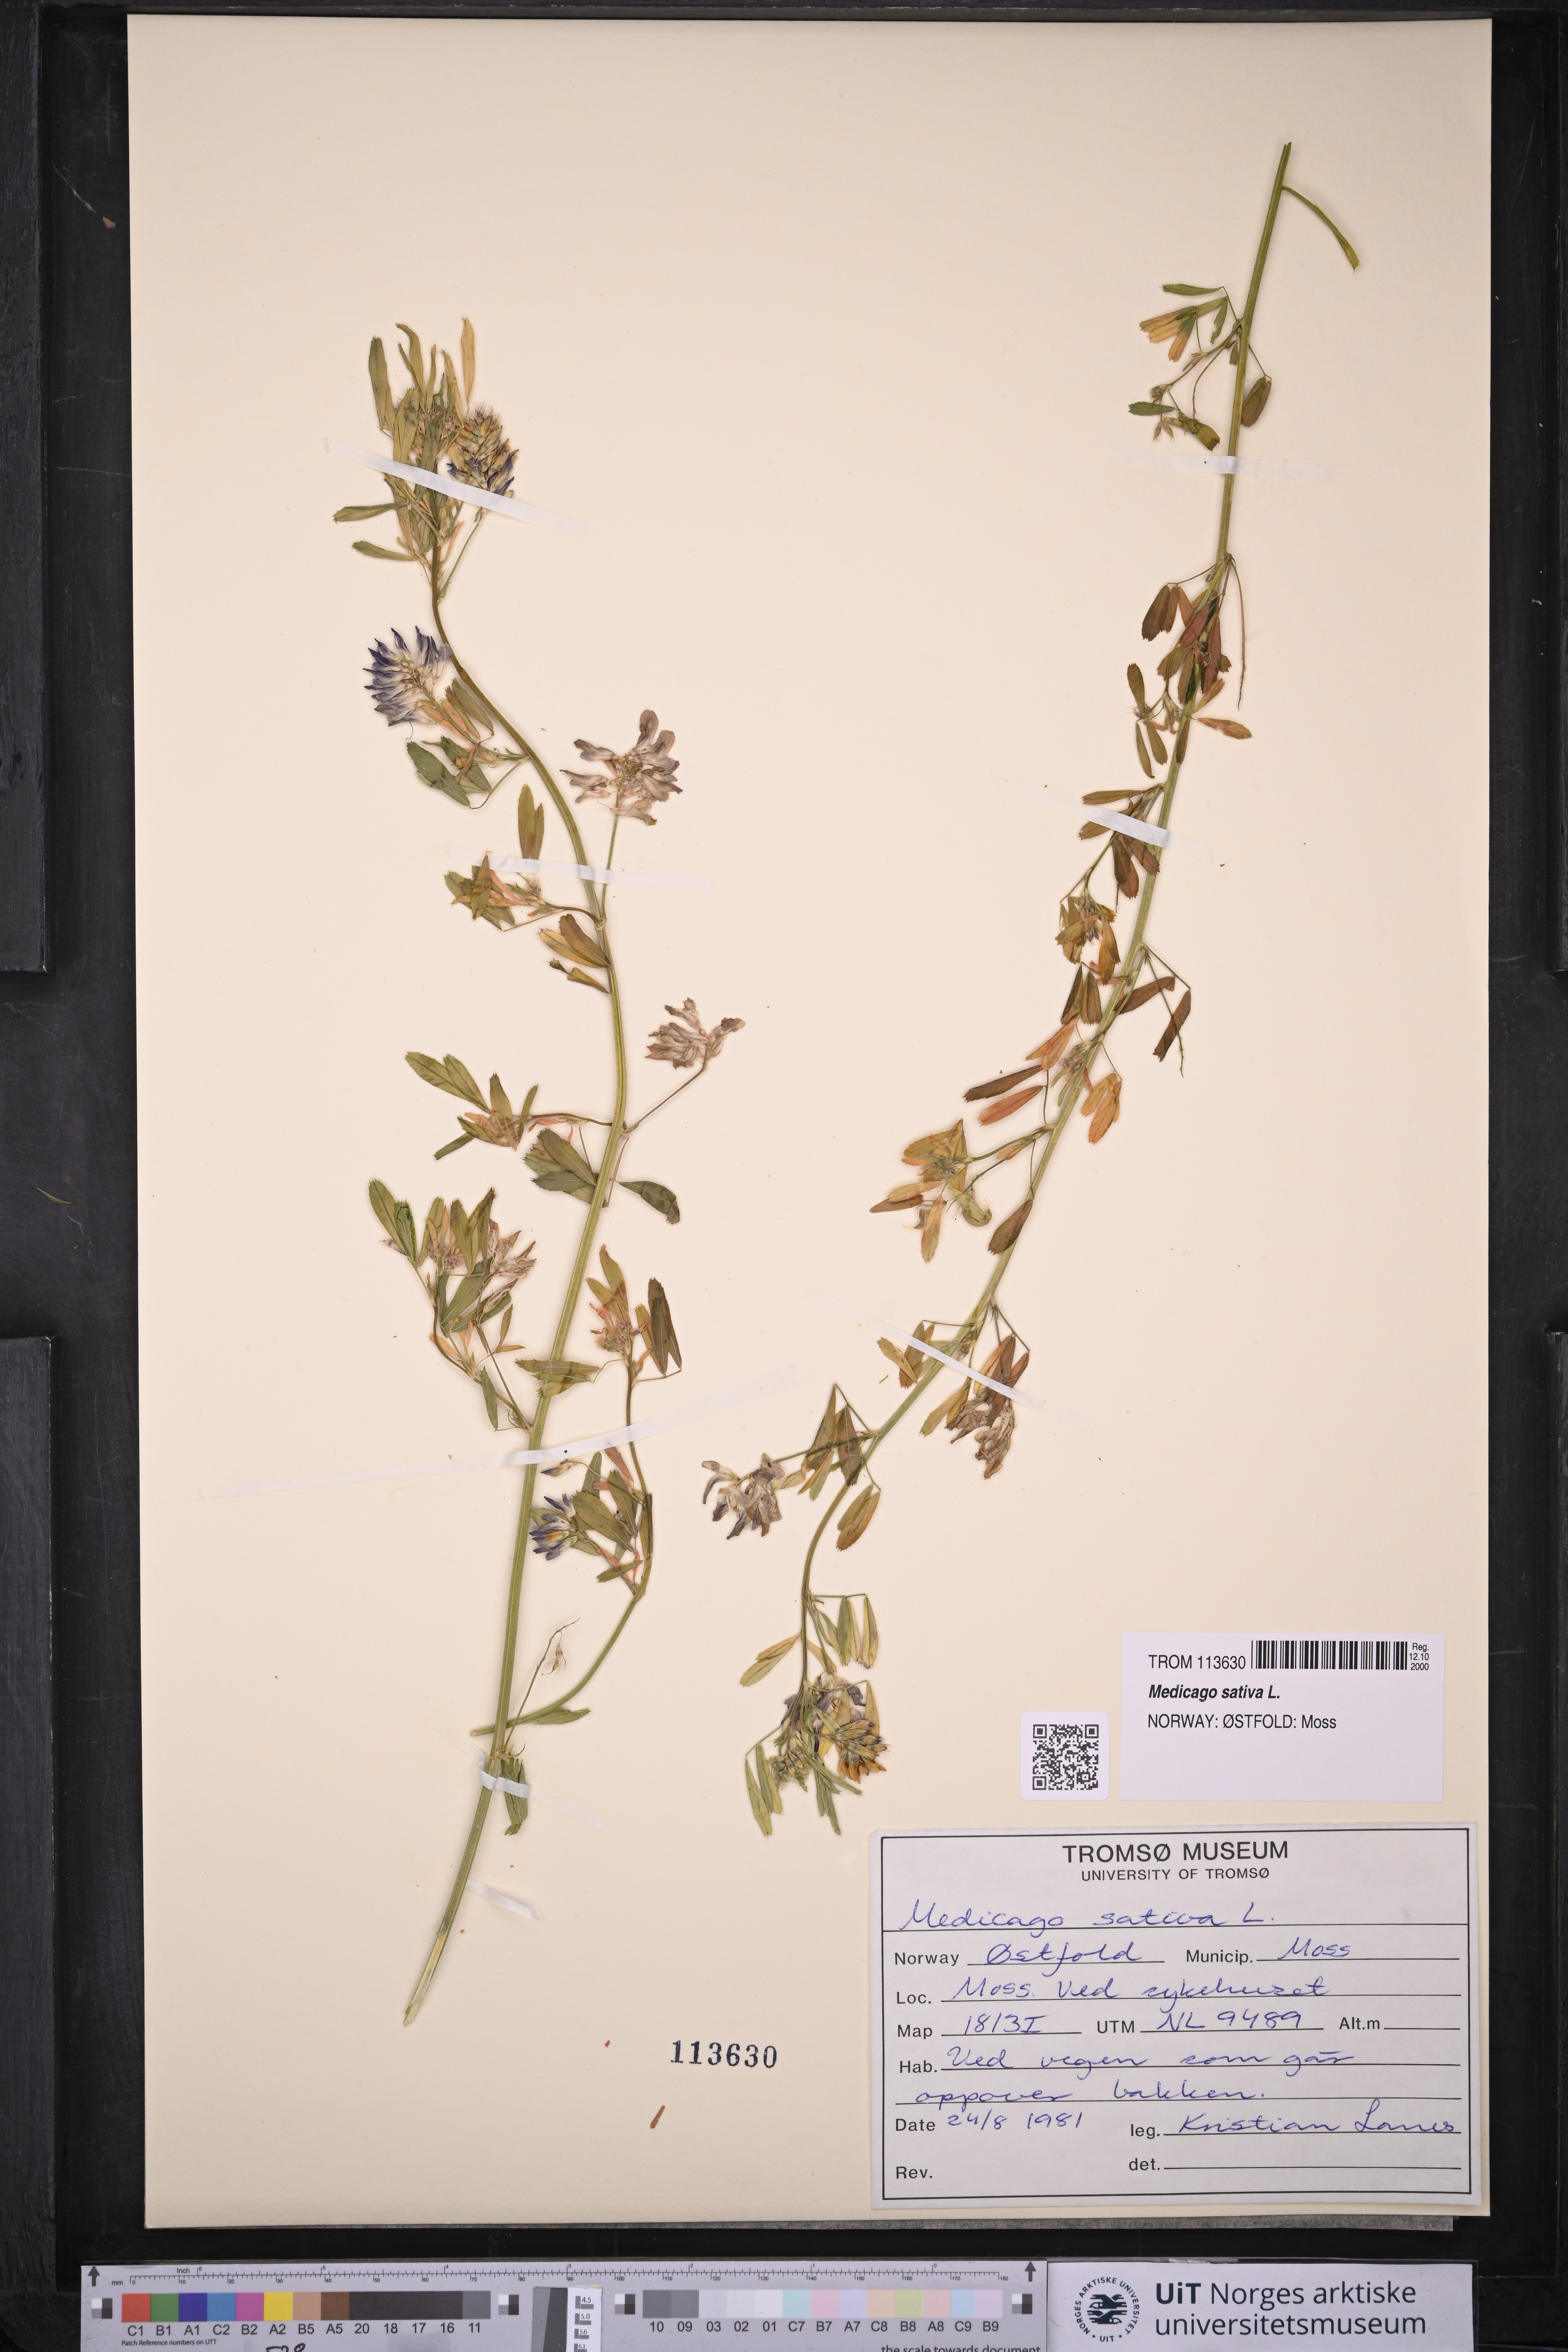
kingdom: Plantae
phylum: Tracheophyta
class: Magnoliopsida
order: Fabales
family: Fabaceae
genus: Medicago
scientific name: Medicago sativa
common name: Alfalfa
